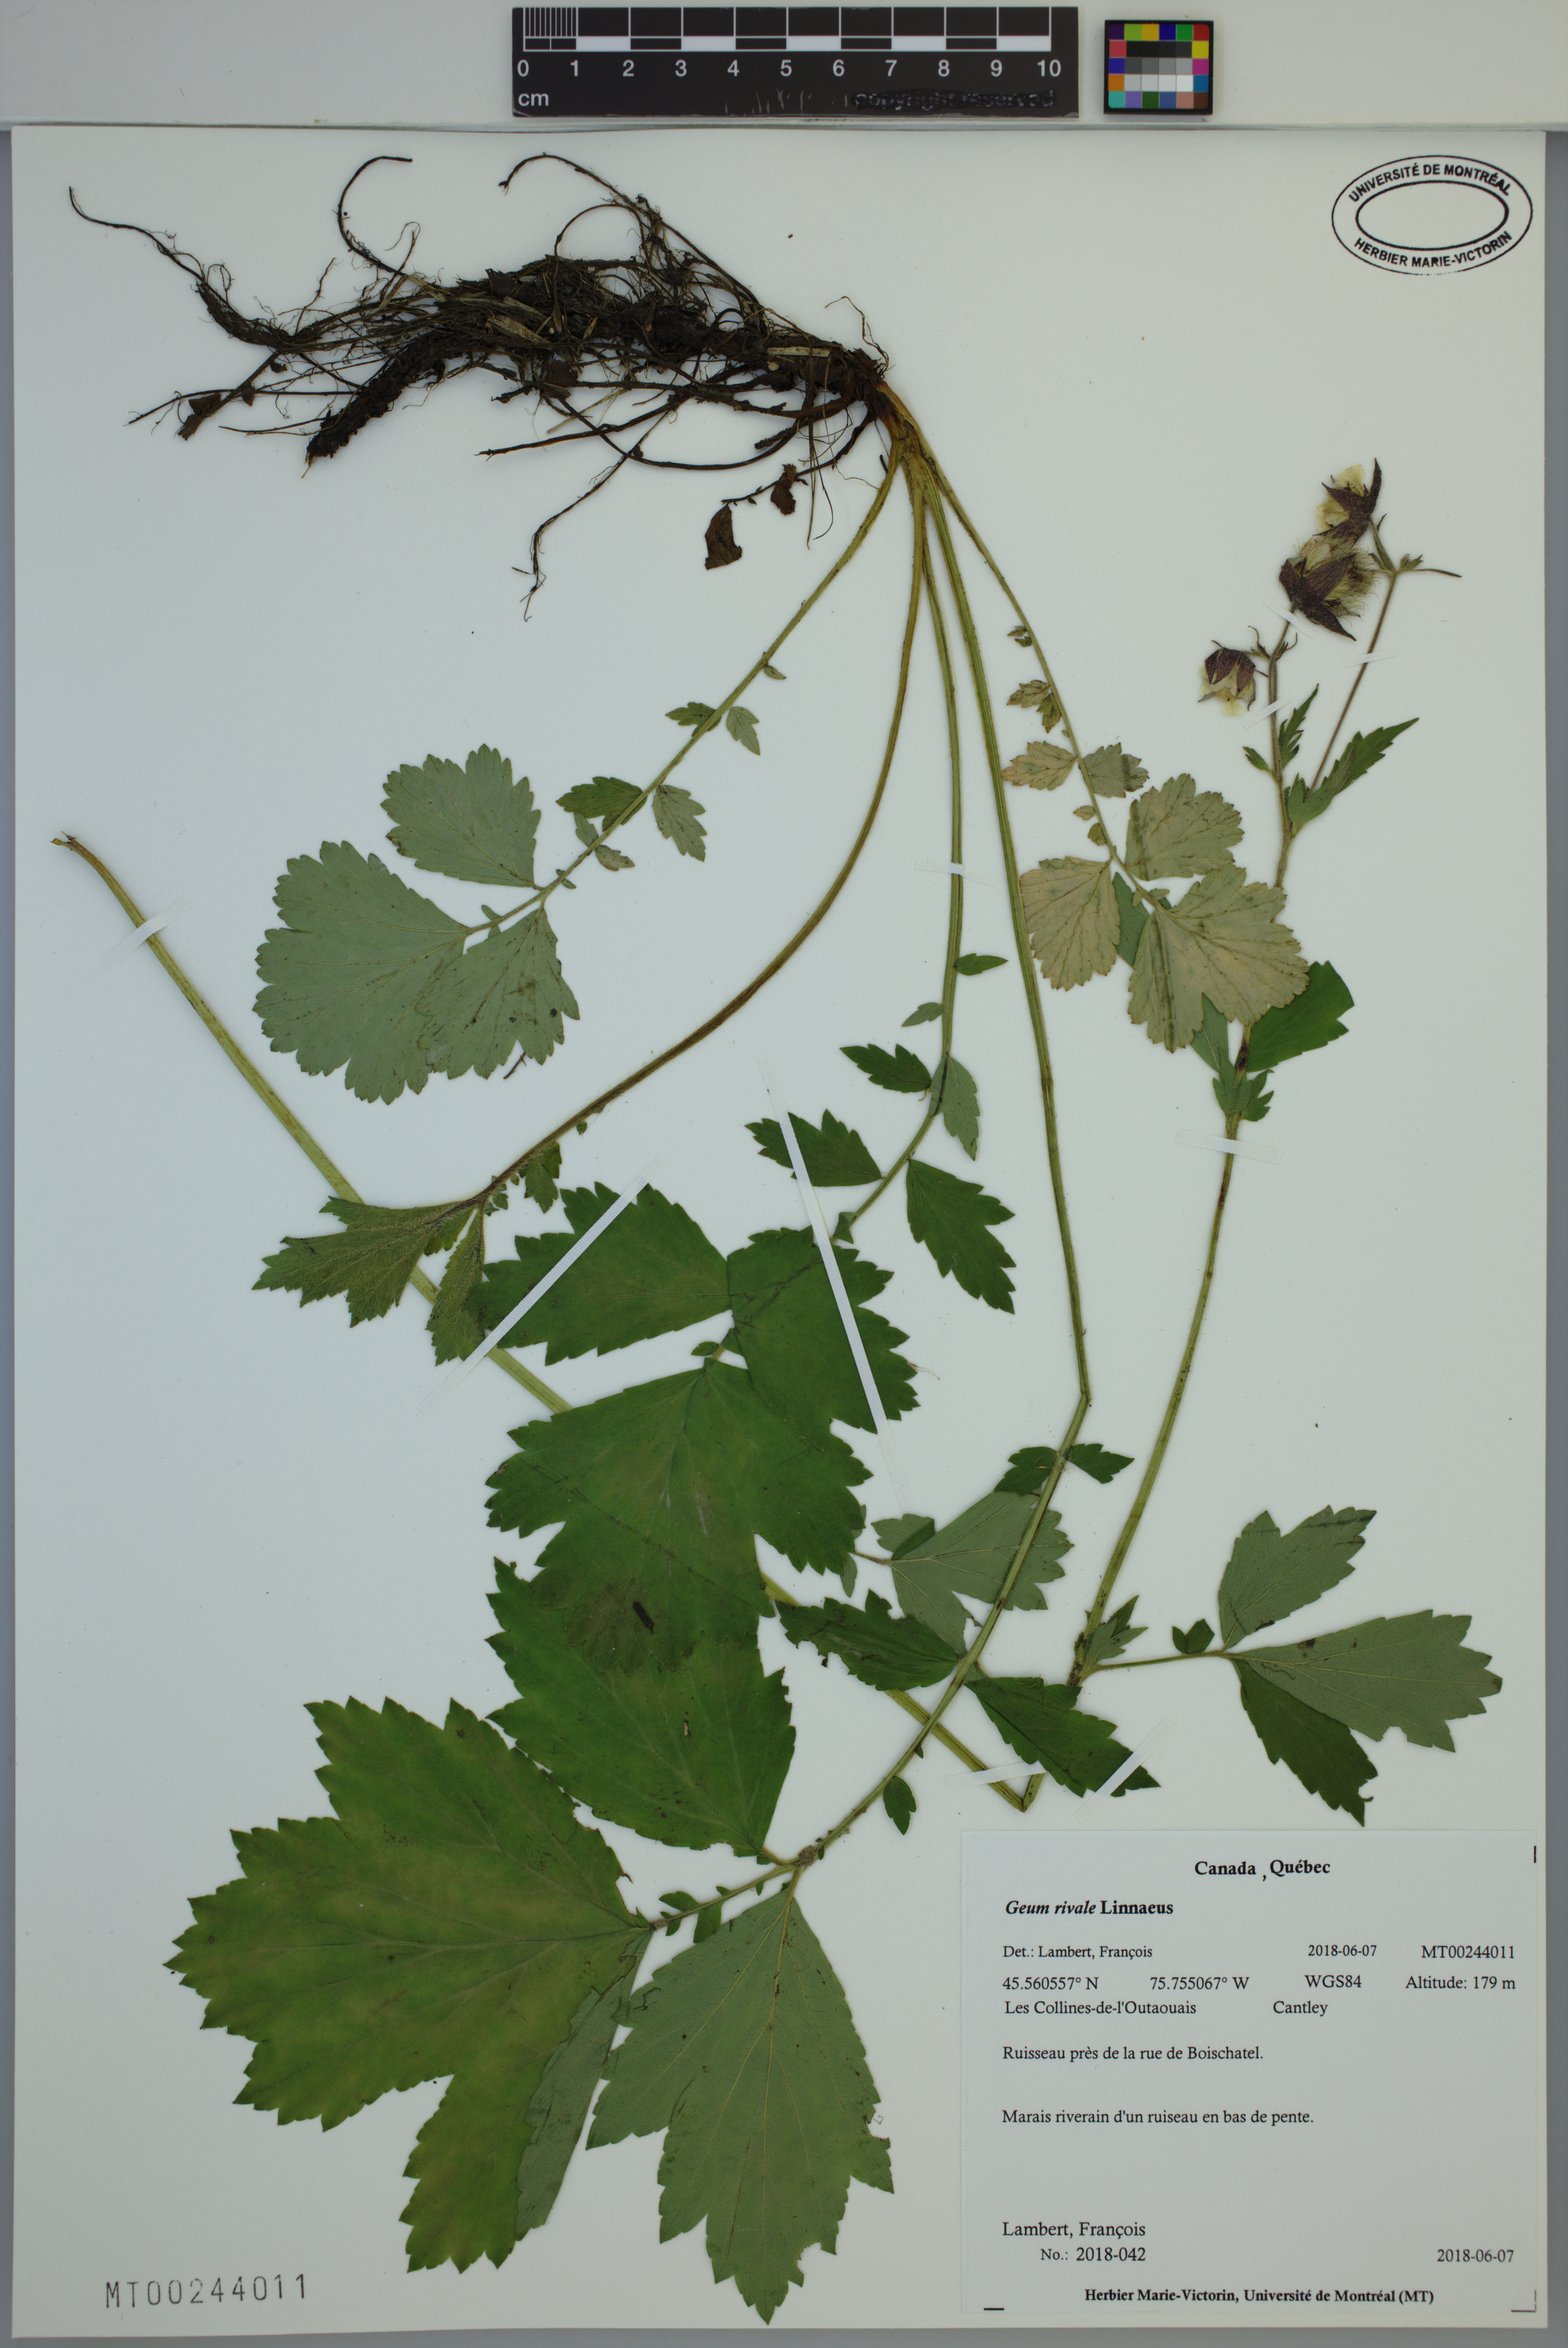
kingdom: Plantae
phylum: Tracheophyta
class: Magnoliopsida
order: Rosales
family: Rosaceae
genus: Geum
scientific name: Geum rivale
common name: Water avens
